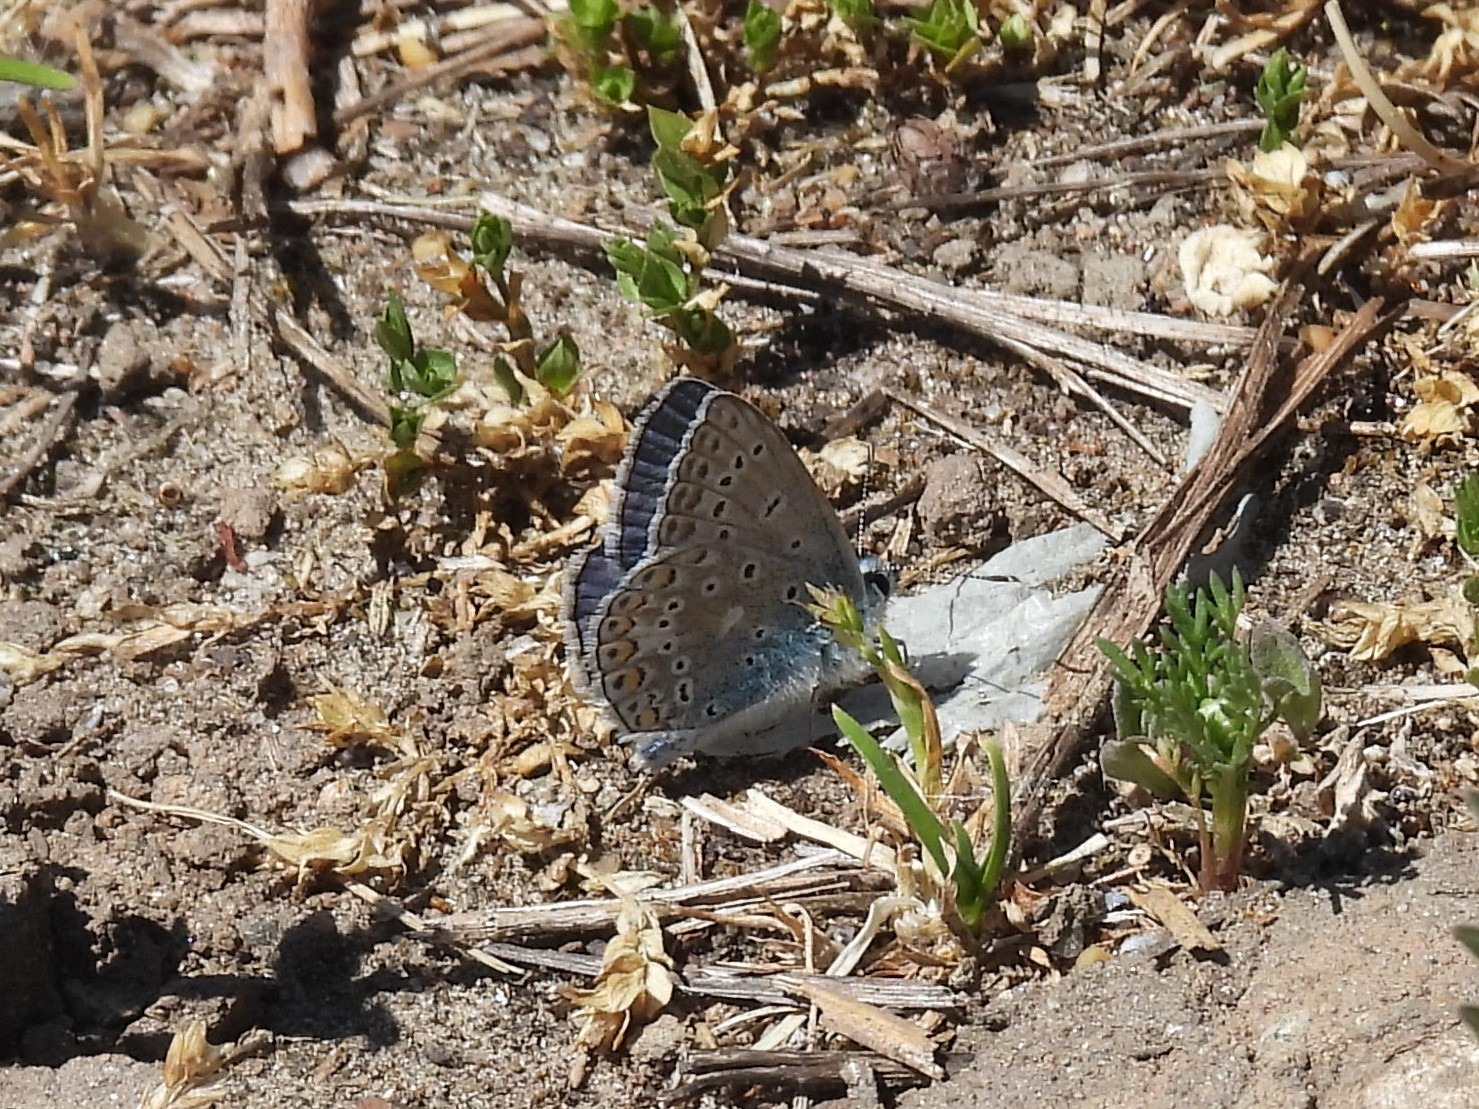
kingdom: Animalia
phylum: Arthropoda
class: Insecta
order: Lepidoptera
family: Lycaenidae
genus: Polyommatus
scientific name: Polyommatus icarus
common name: Almindelig blåfugl
